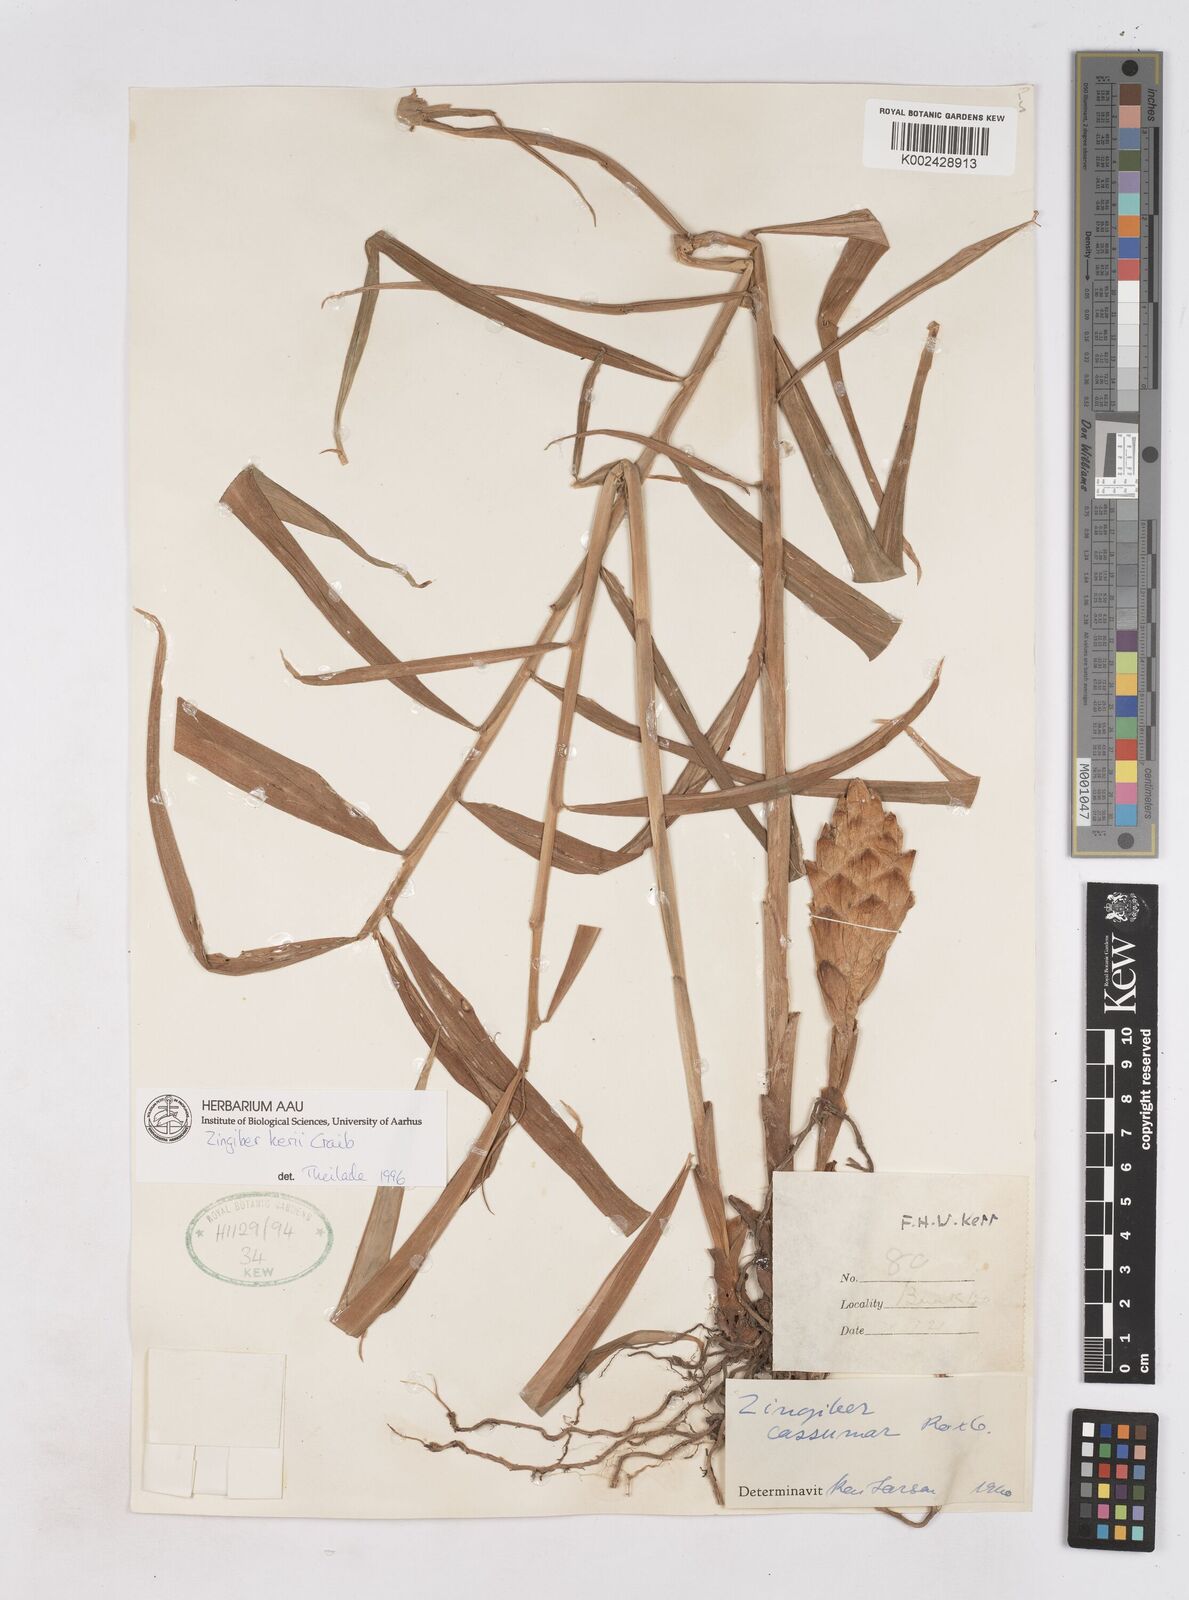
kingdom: Plantae
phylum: Tracheophyta
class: Liliopsida
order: Zingiberales
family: Zingiberaceae
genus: Zingiber
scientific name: Zingiber kerrii
